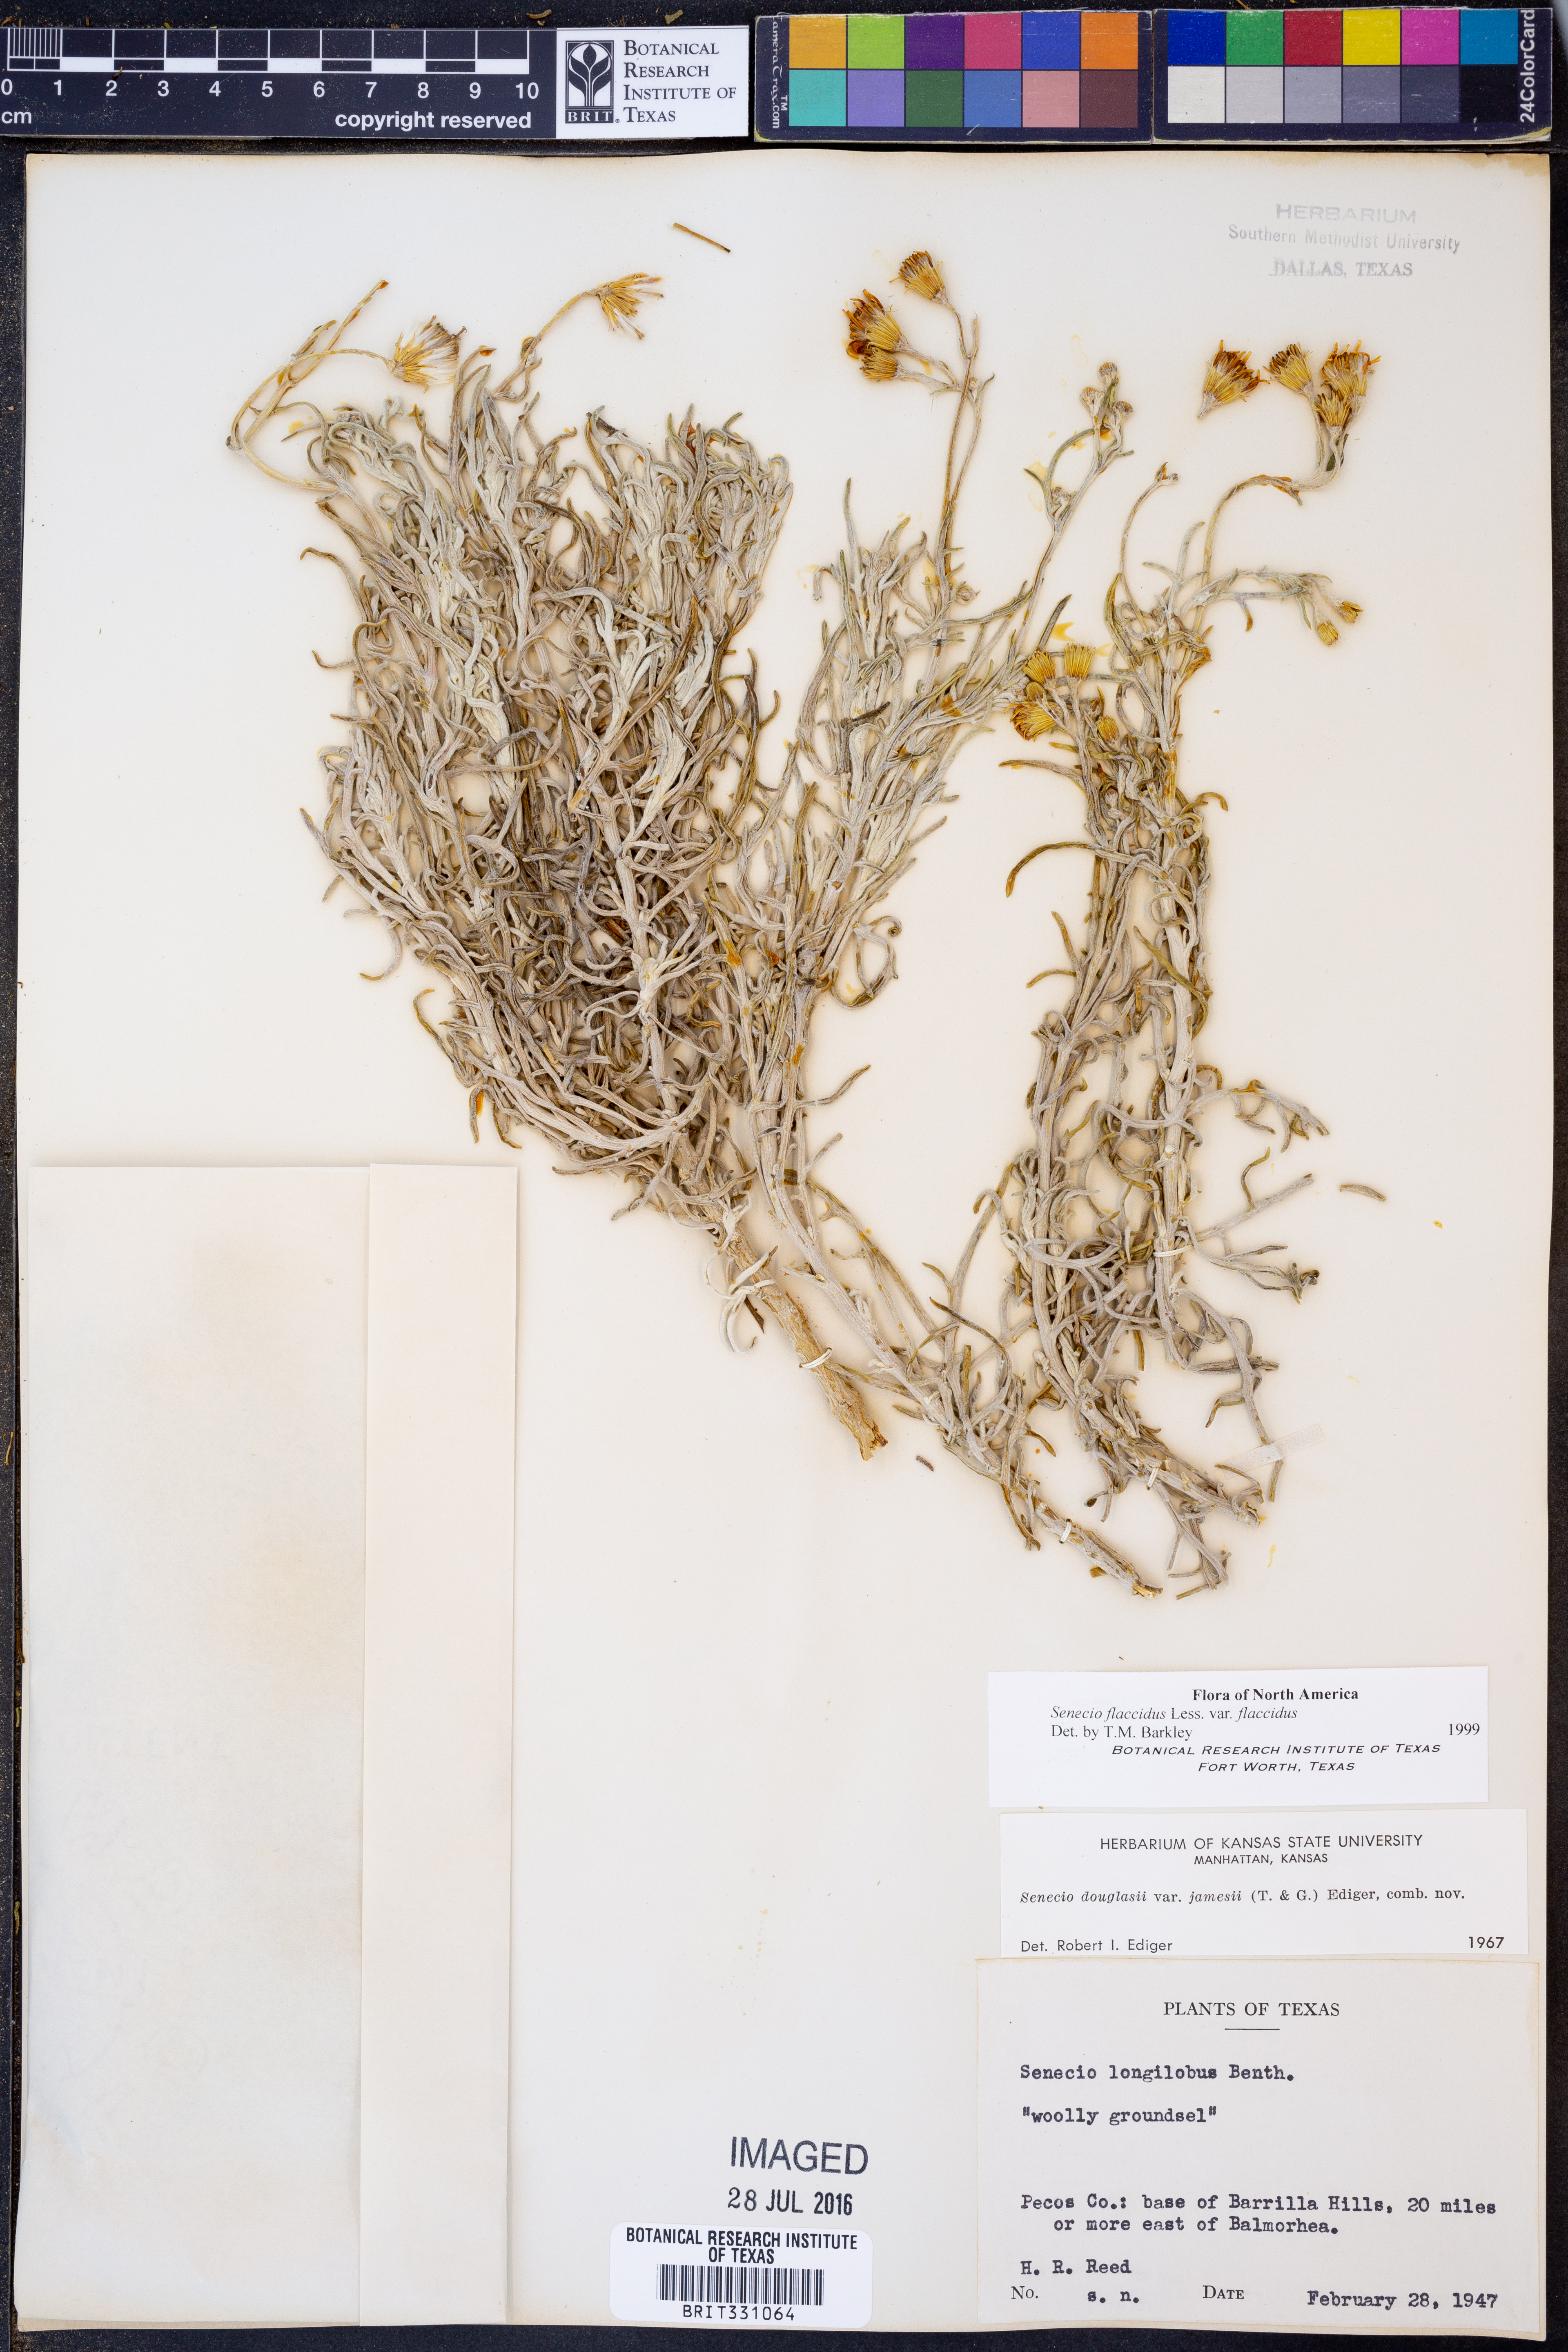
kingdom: Plantae
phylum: Tracheophyta
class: Magnoliopsida
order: Asterales
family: Asteraceae
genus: Senecio
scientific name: Senecio flaccidus
